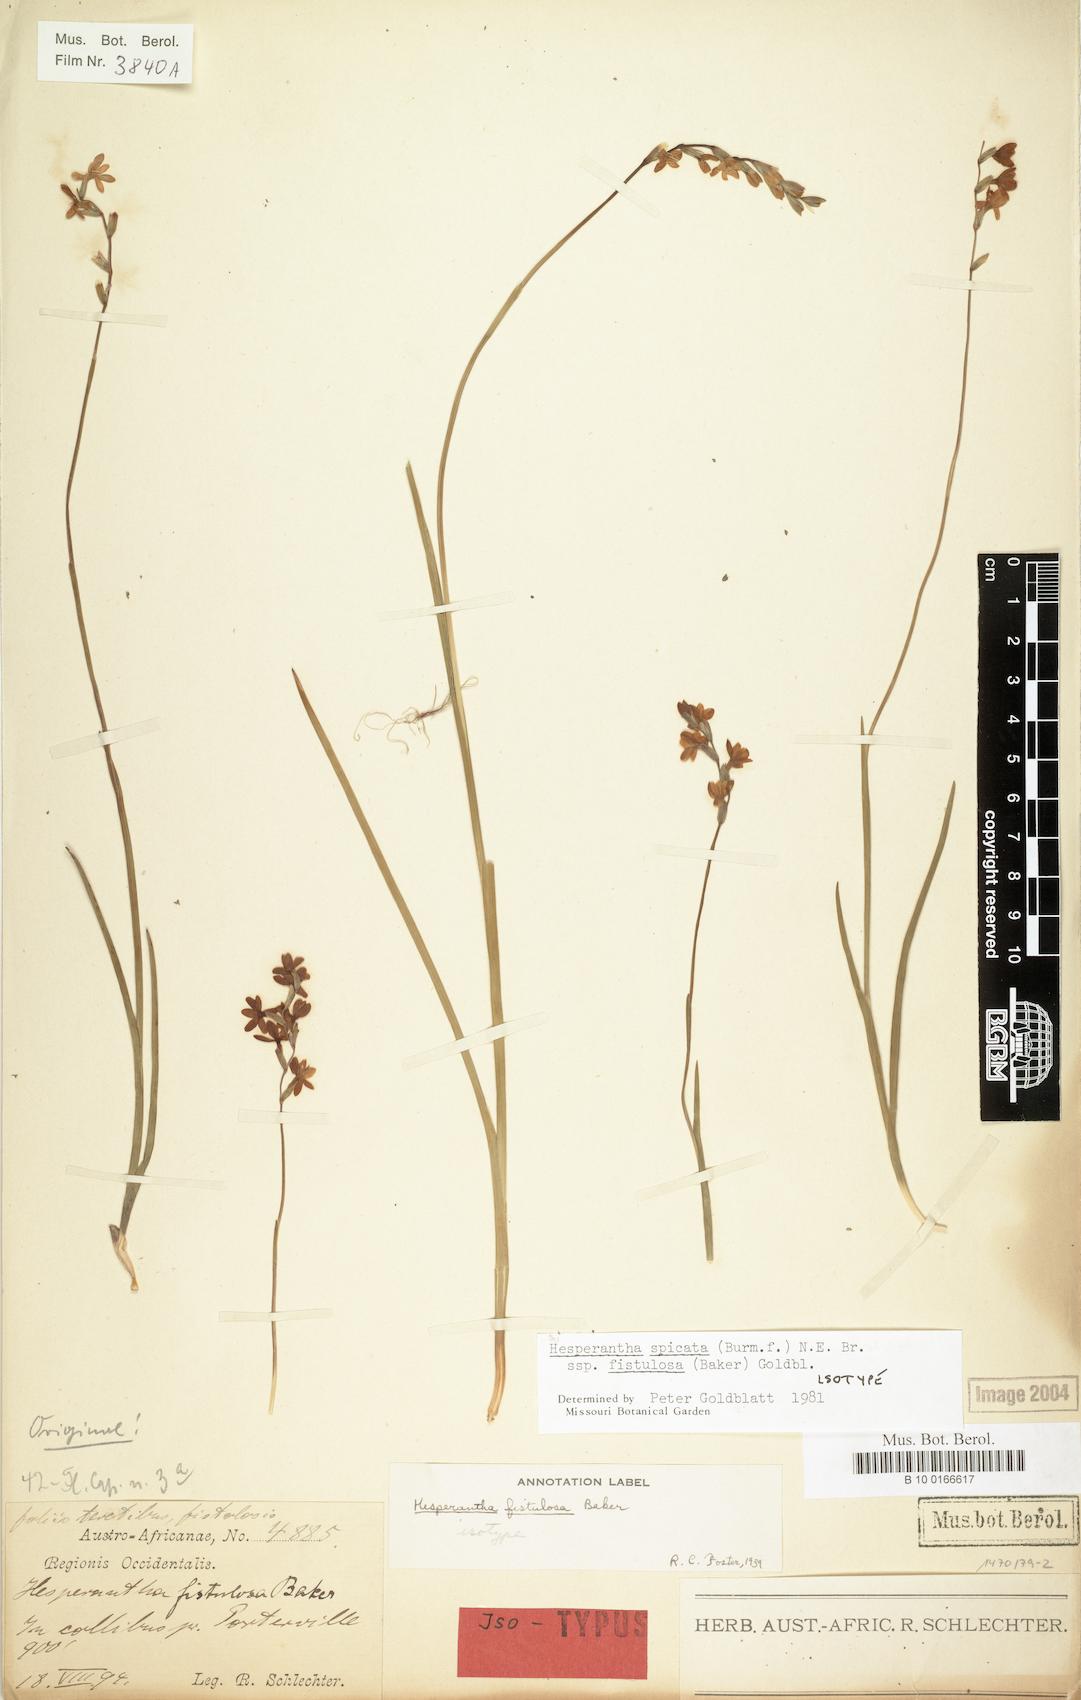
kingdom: Plantae
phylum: Tracheophyta
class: Liliopsida
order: Asparagales
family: Iridaceae
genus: Hesperantha
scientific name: Hesperantha spicata
